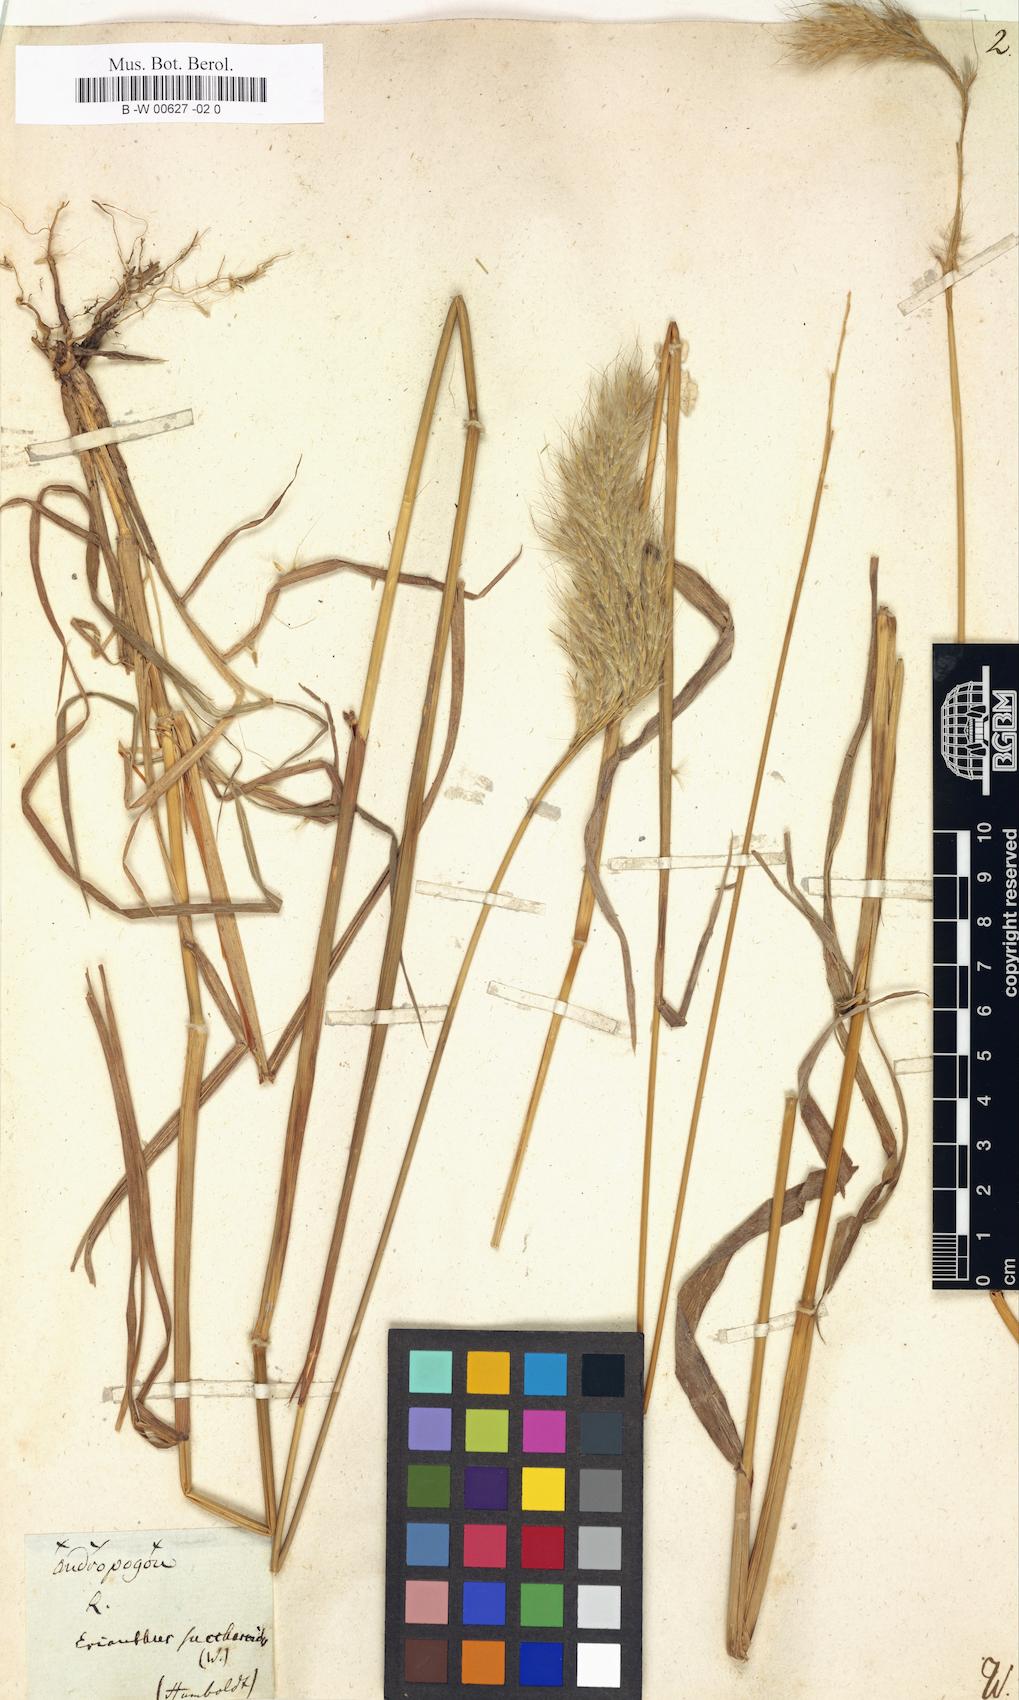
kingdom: Plantae
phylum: Tracheophyta
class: Liliopsida
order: Poales
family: Poaceae
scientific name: Poaceae
